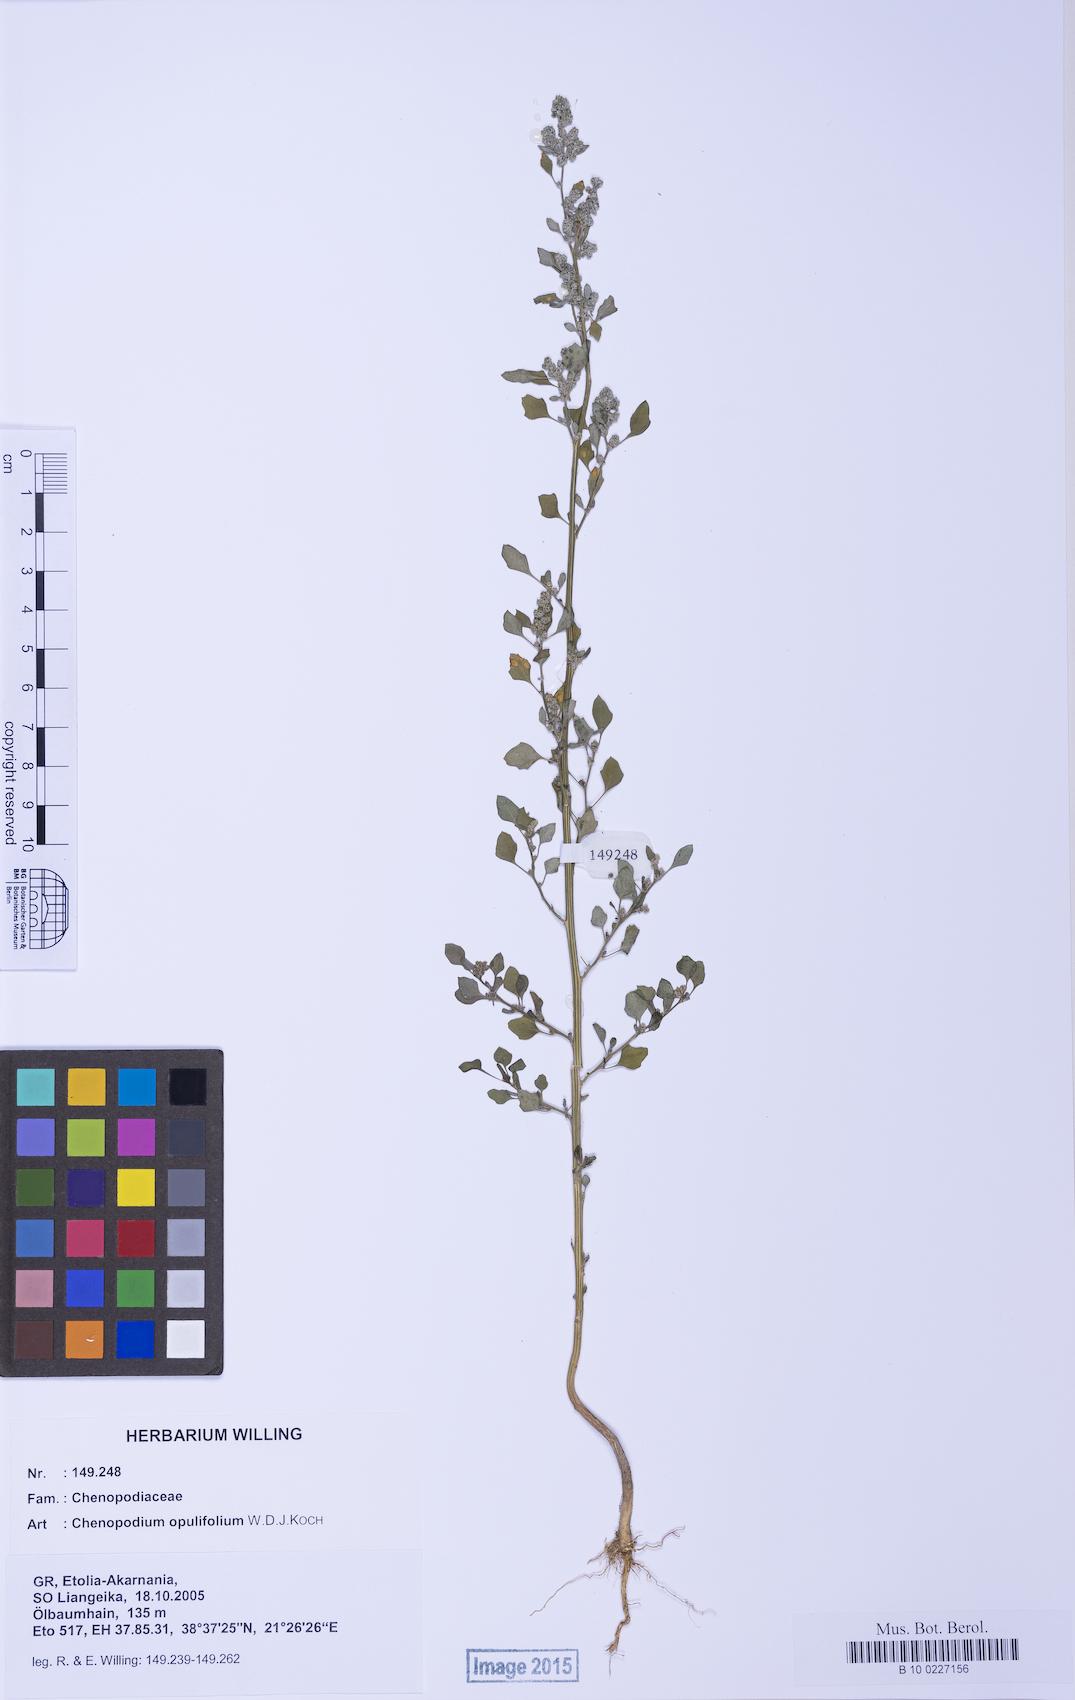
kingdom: Plantae
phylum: Tracheophyta
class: Magnoliopsida
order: Caryophyllales
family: Amaranthaceae
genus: Chenopodium
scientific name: Chenopodium opulifolium
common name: Grey goosefoot
